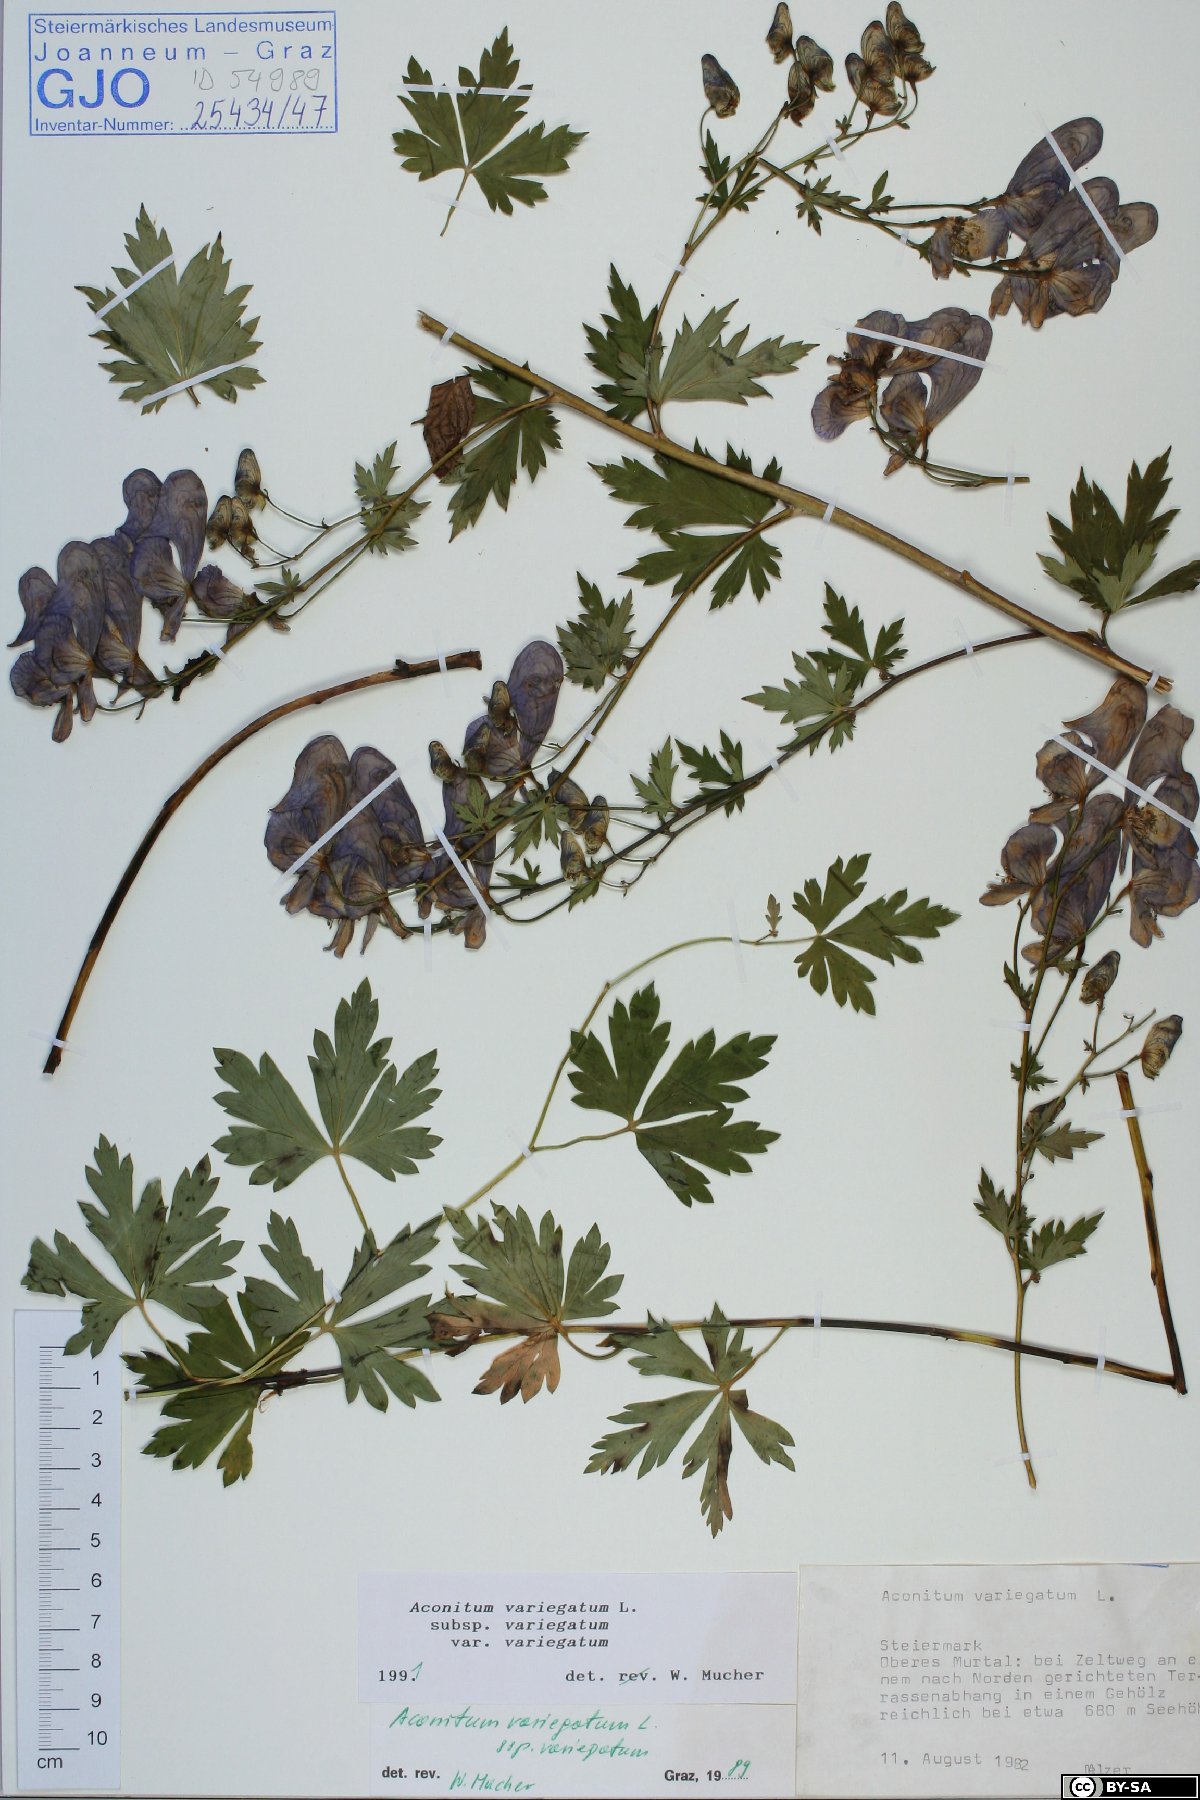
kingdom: Plantae
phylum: Tracheophyta
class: Magnoliopsida
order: Ranunculales
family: Ranunculaceae
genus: Aconitum
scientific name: Aconitum variegatum
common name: Manchurian monkshood
